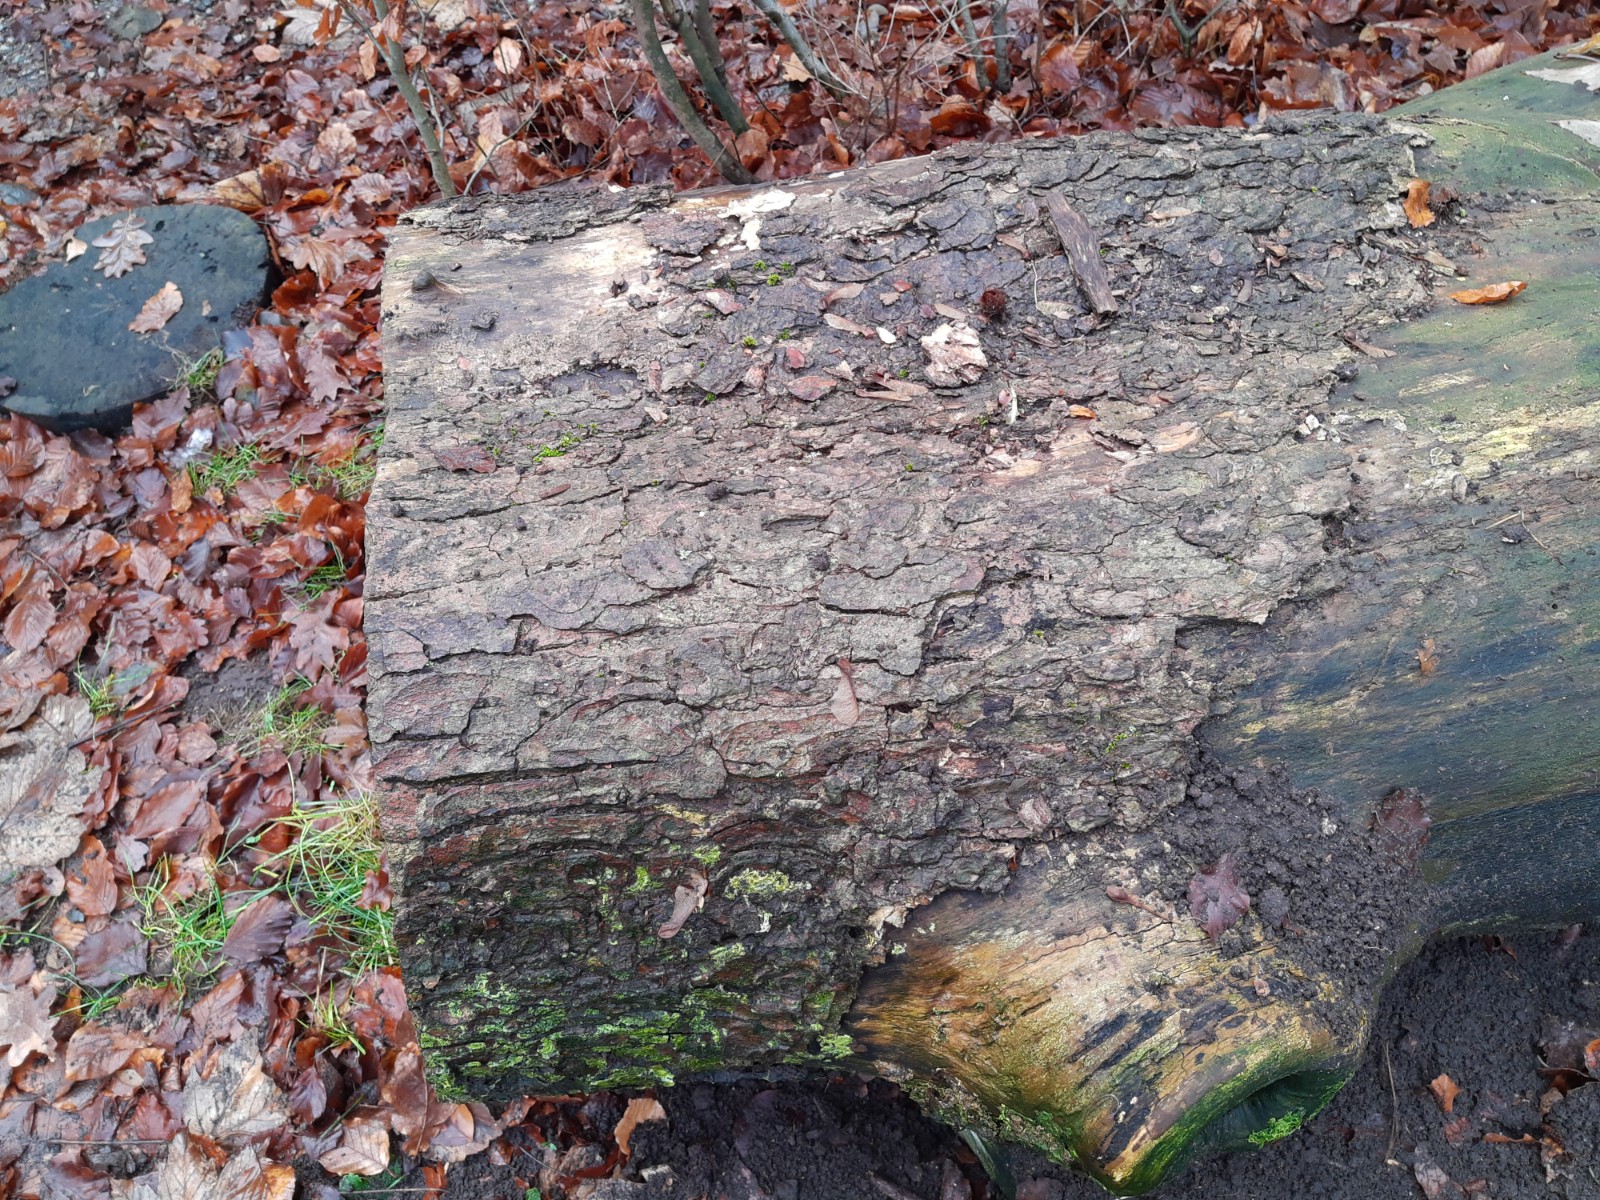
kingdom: Fungi
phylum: Ascomycota
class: Sordariomycetes
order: Xylariales
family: Hypoxylaceae
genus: Daldinia
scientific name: Daldinia concentrica
